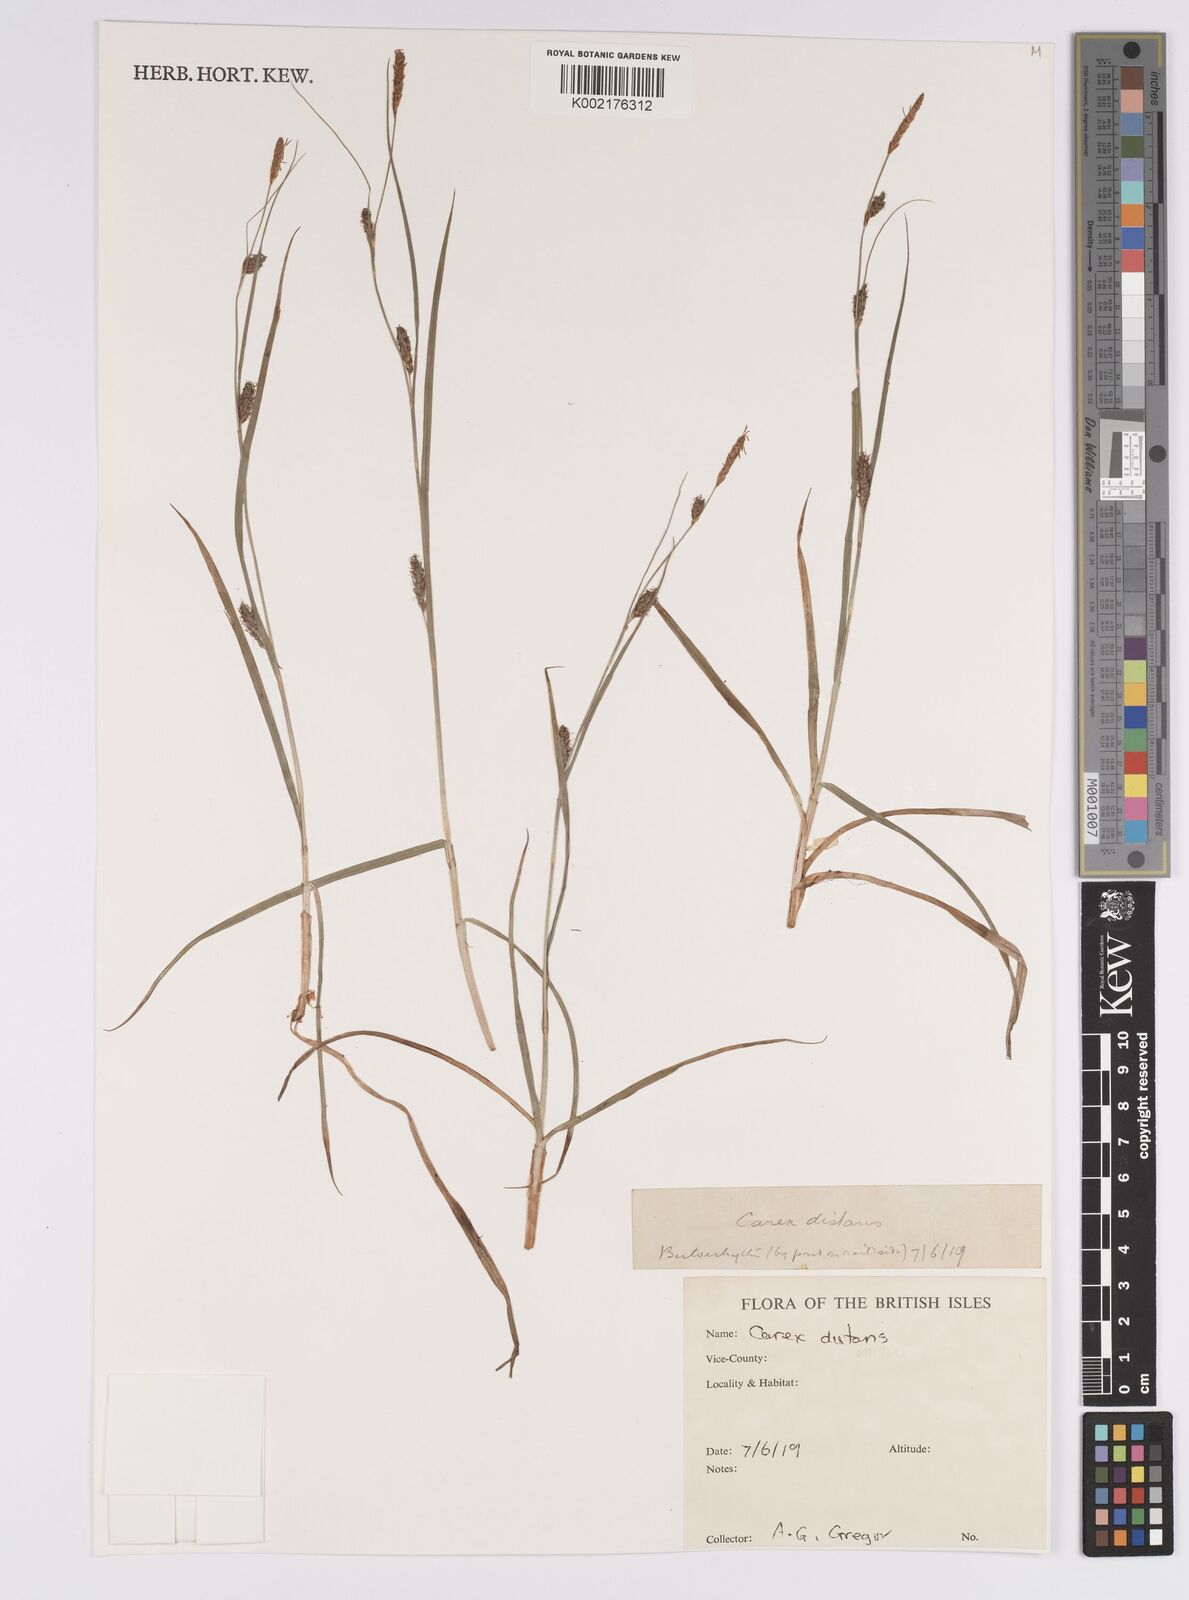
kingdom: Plantae
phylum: Tracheophyta
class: Liliopsida
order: Poales
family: Cyperaceae
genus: Carex
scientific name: Carex distans
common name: Distant sedge
